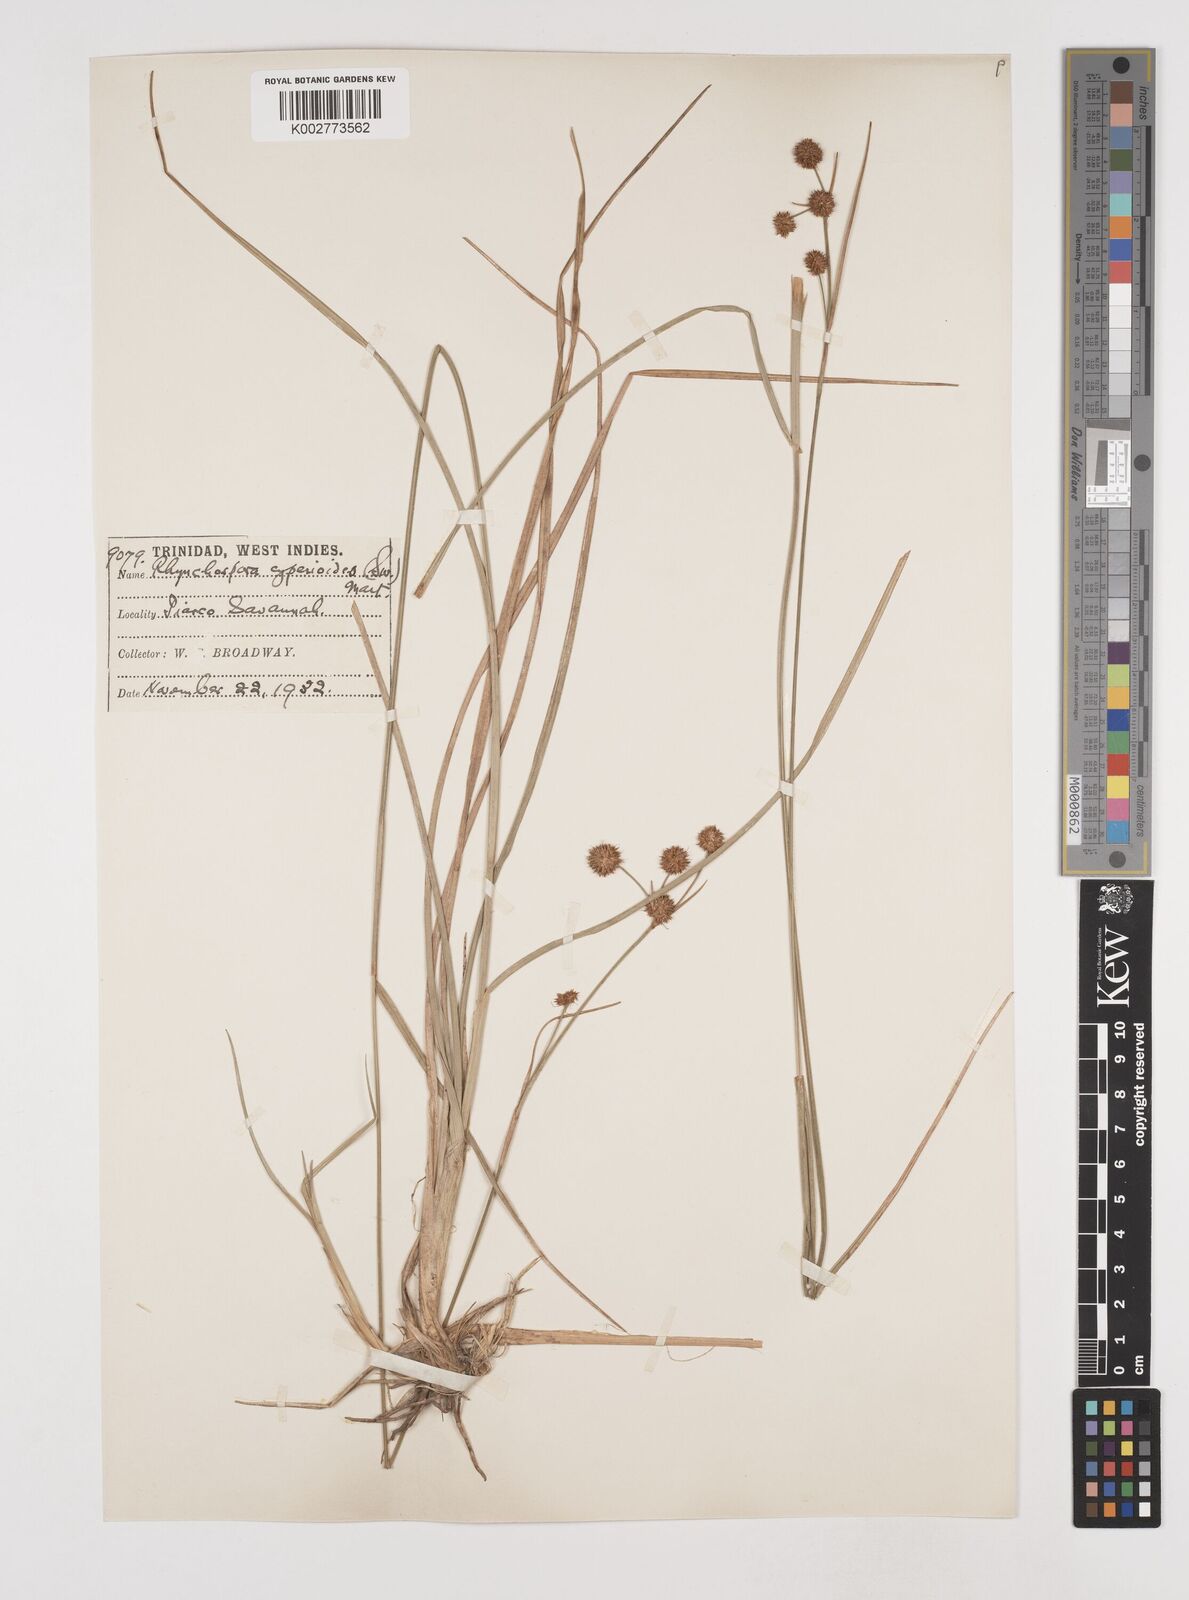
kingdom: Plantae
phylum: Tracheophyta
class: Liliopsida
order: Poales
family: Cyperaceae
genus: Rhynchospora
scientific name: Rhynchospora holoschoenoides
